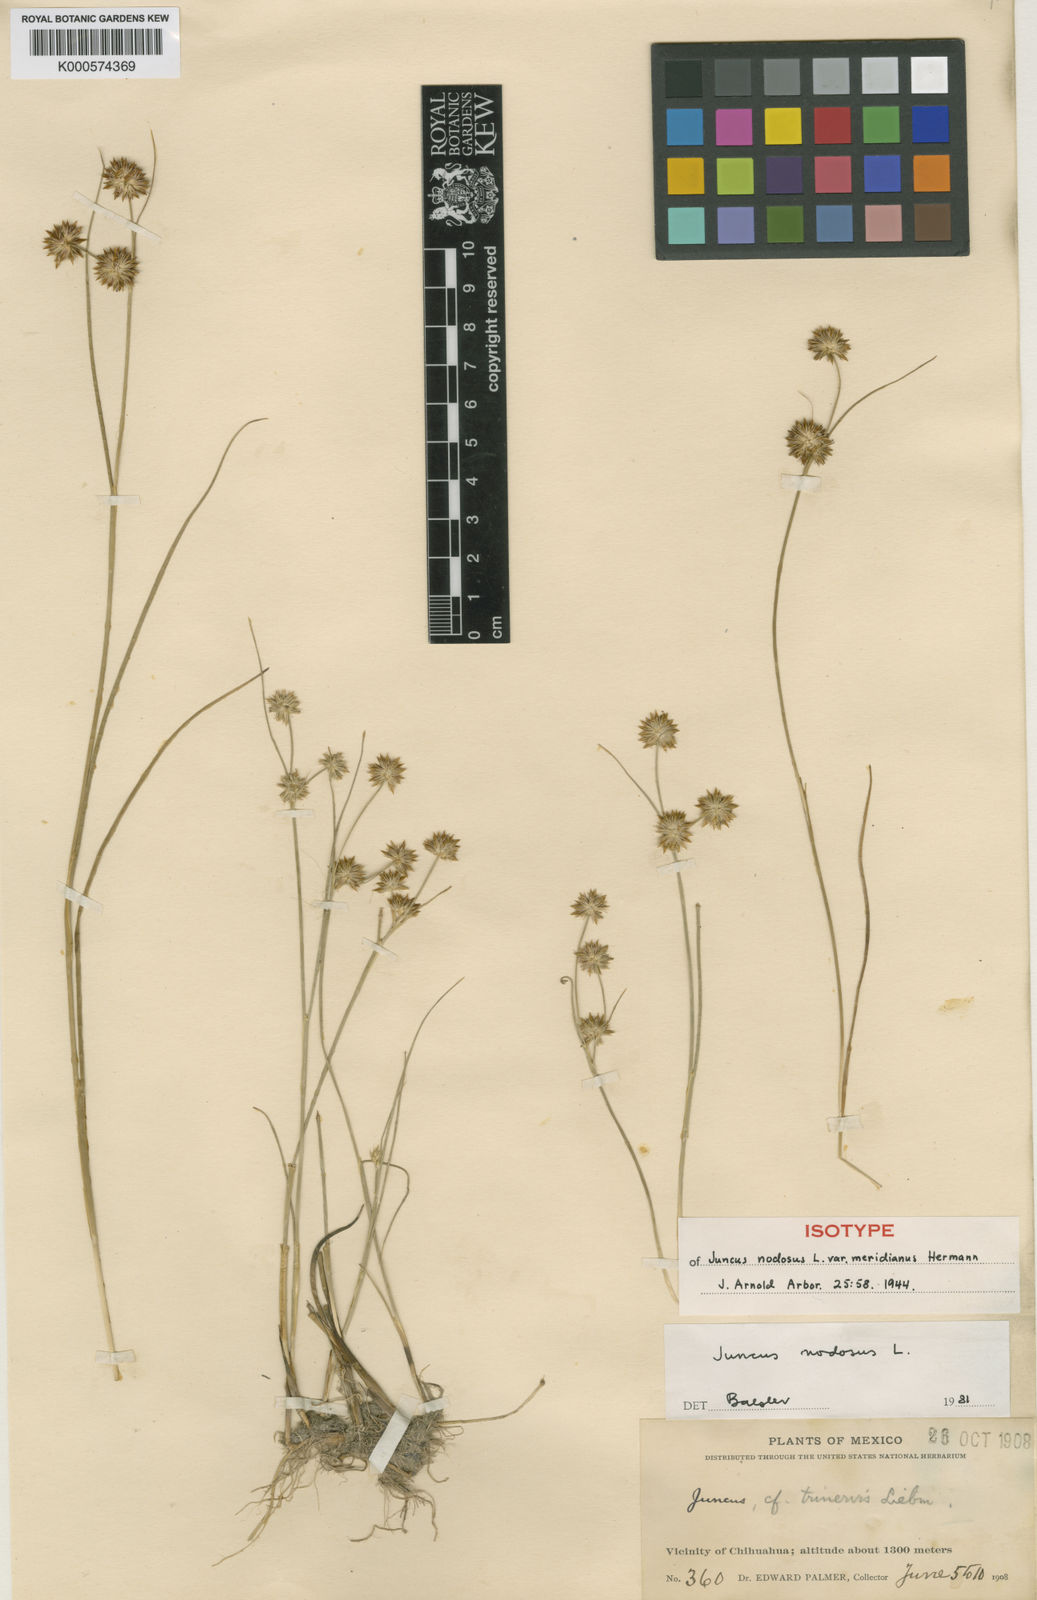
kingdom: Plantae
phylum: Tracheophyta
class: Liliopsida
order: Poales
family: Juncaceae
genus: Juncus
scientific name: Juncus nodosus
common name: Knotted rush
